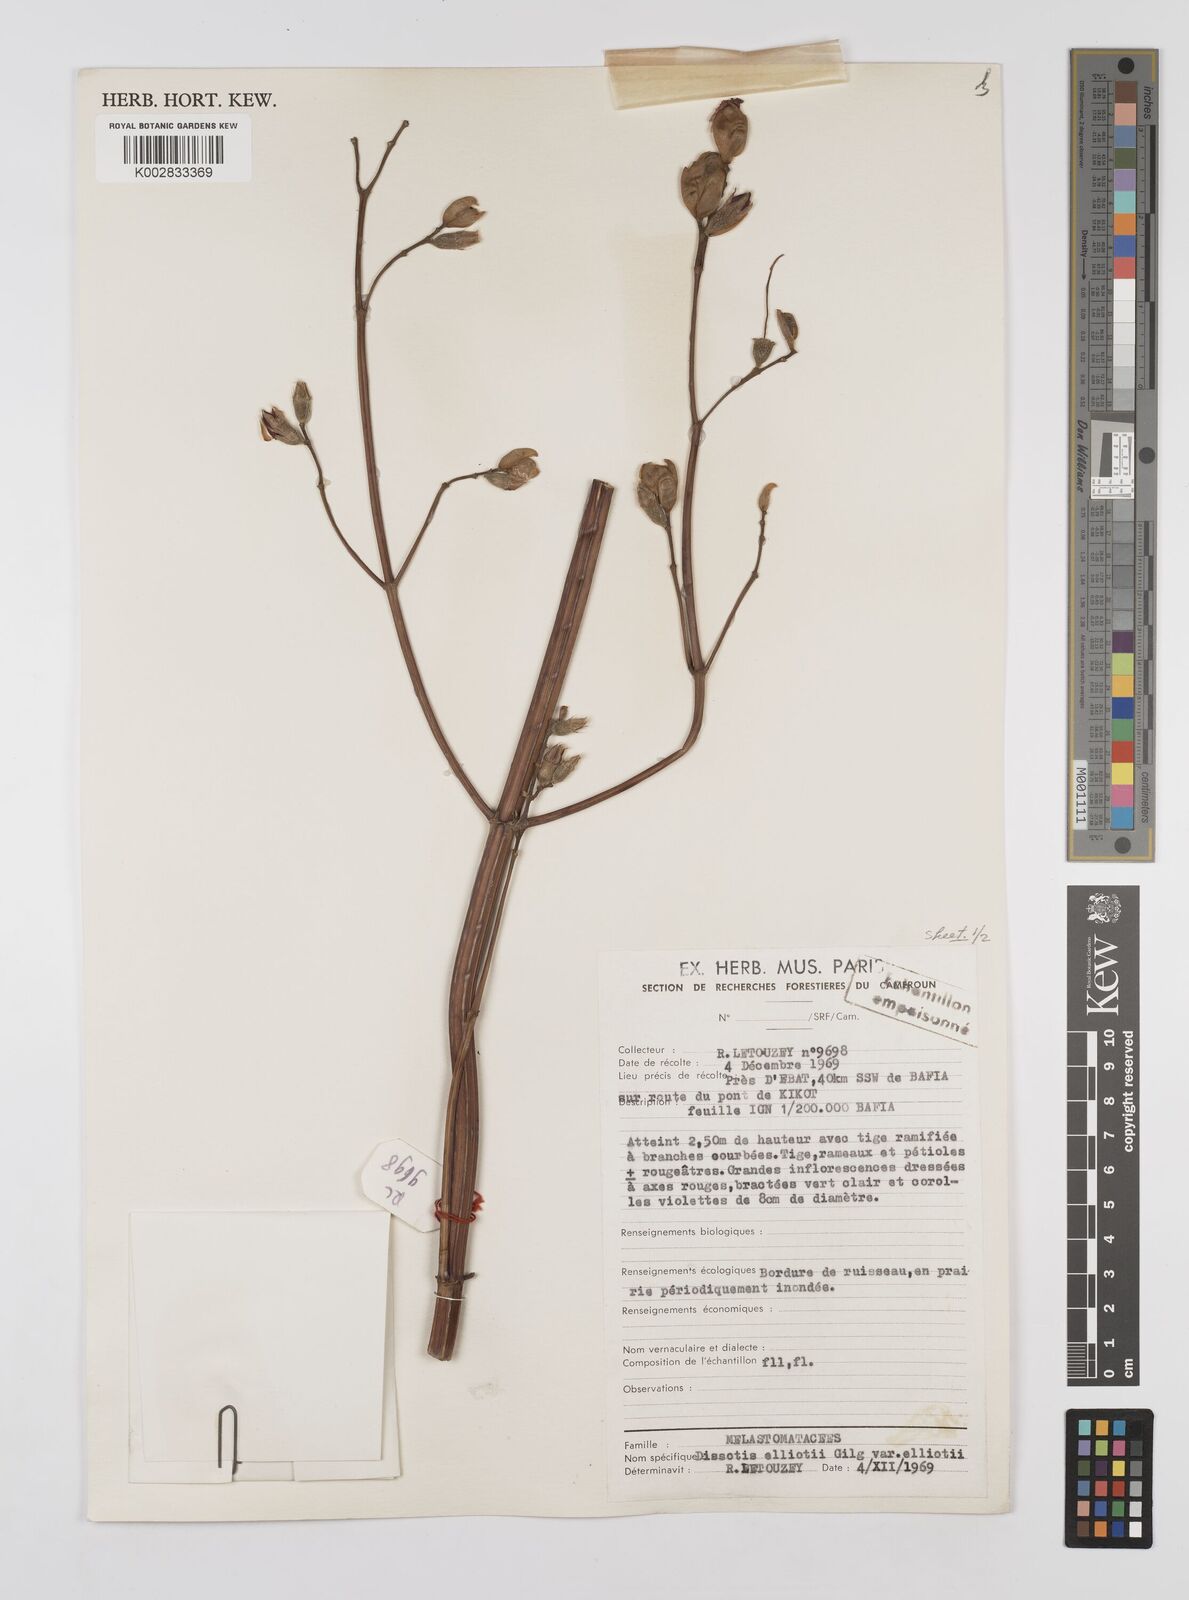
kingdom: Plantae
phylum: Tracheophyta
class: Magnoliopsida
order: Myrtales
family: Melastomataceae
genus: Rosettea
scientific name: Rosettea elliotii
